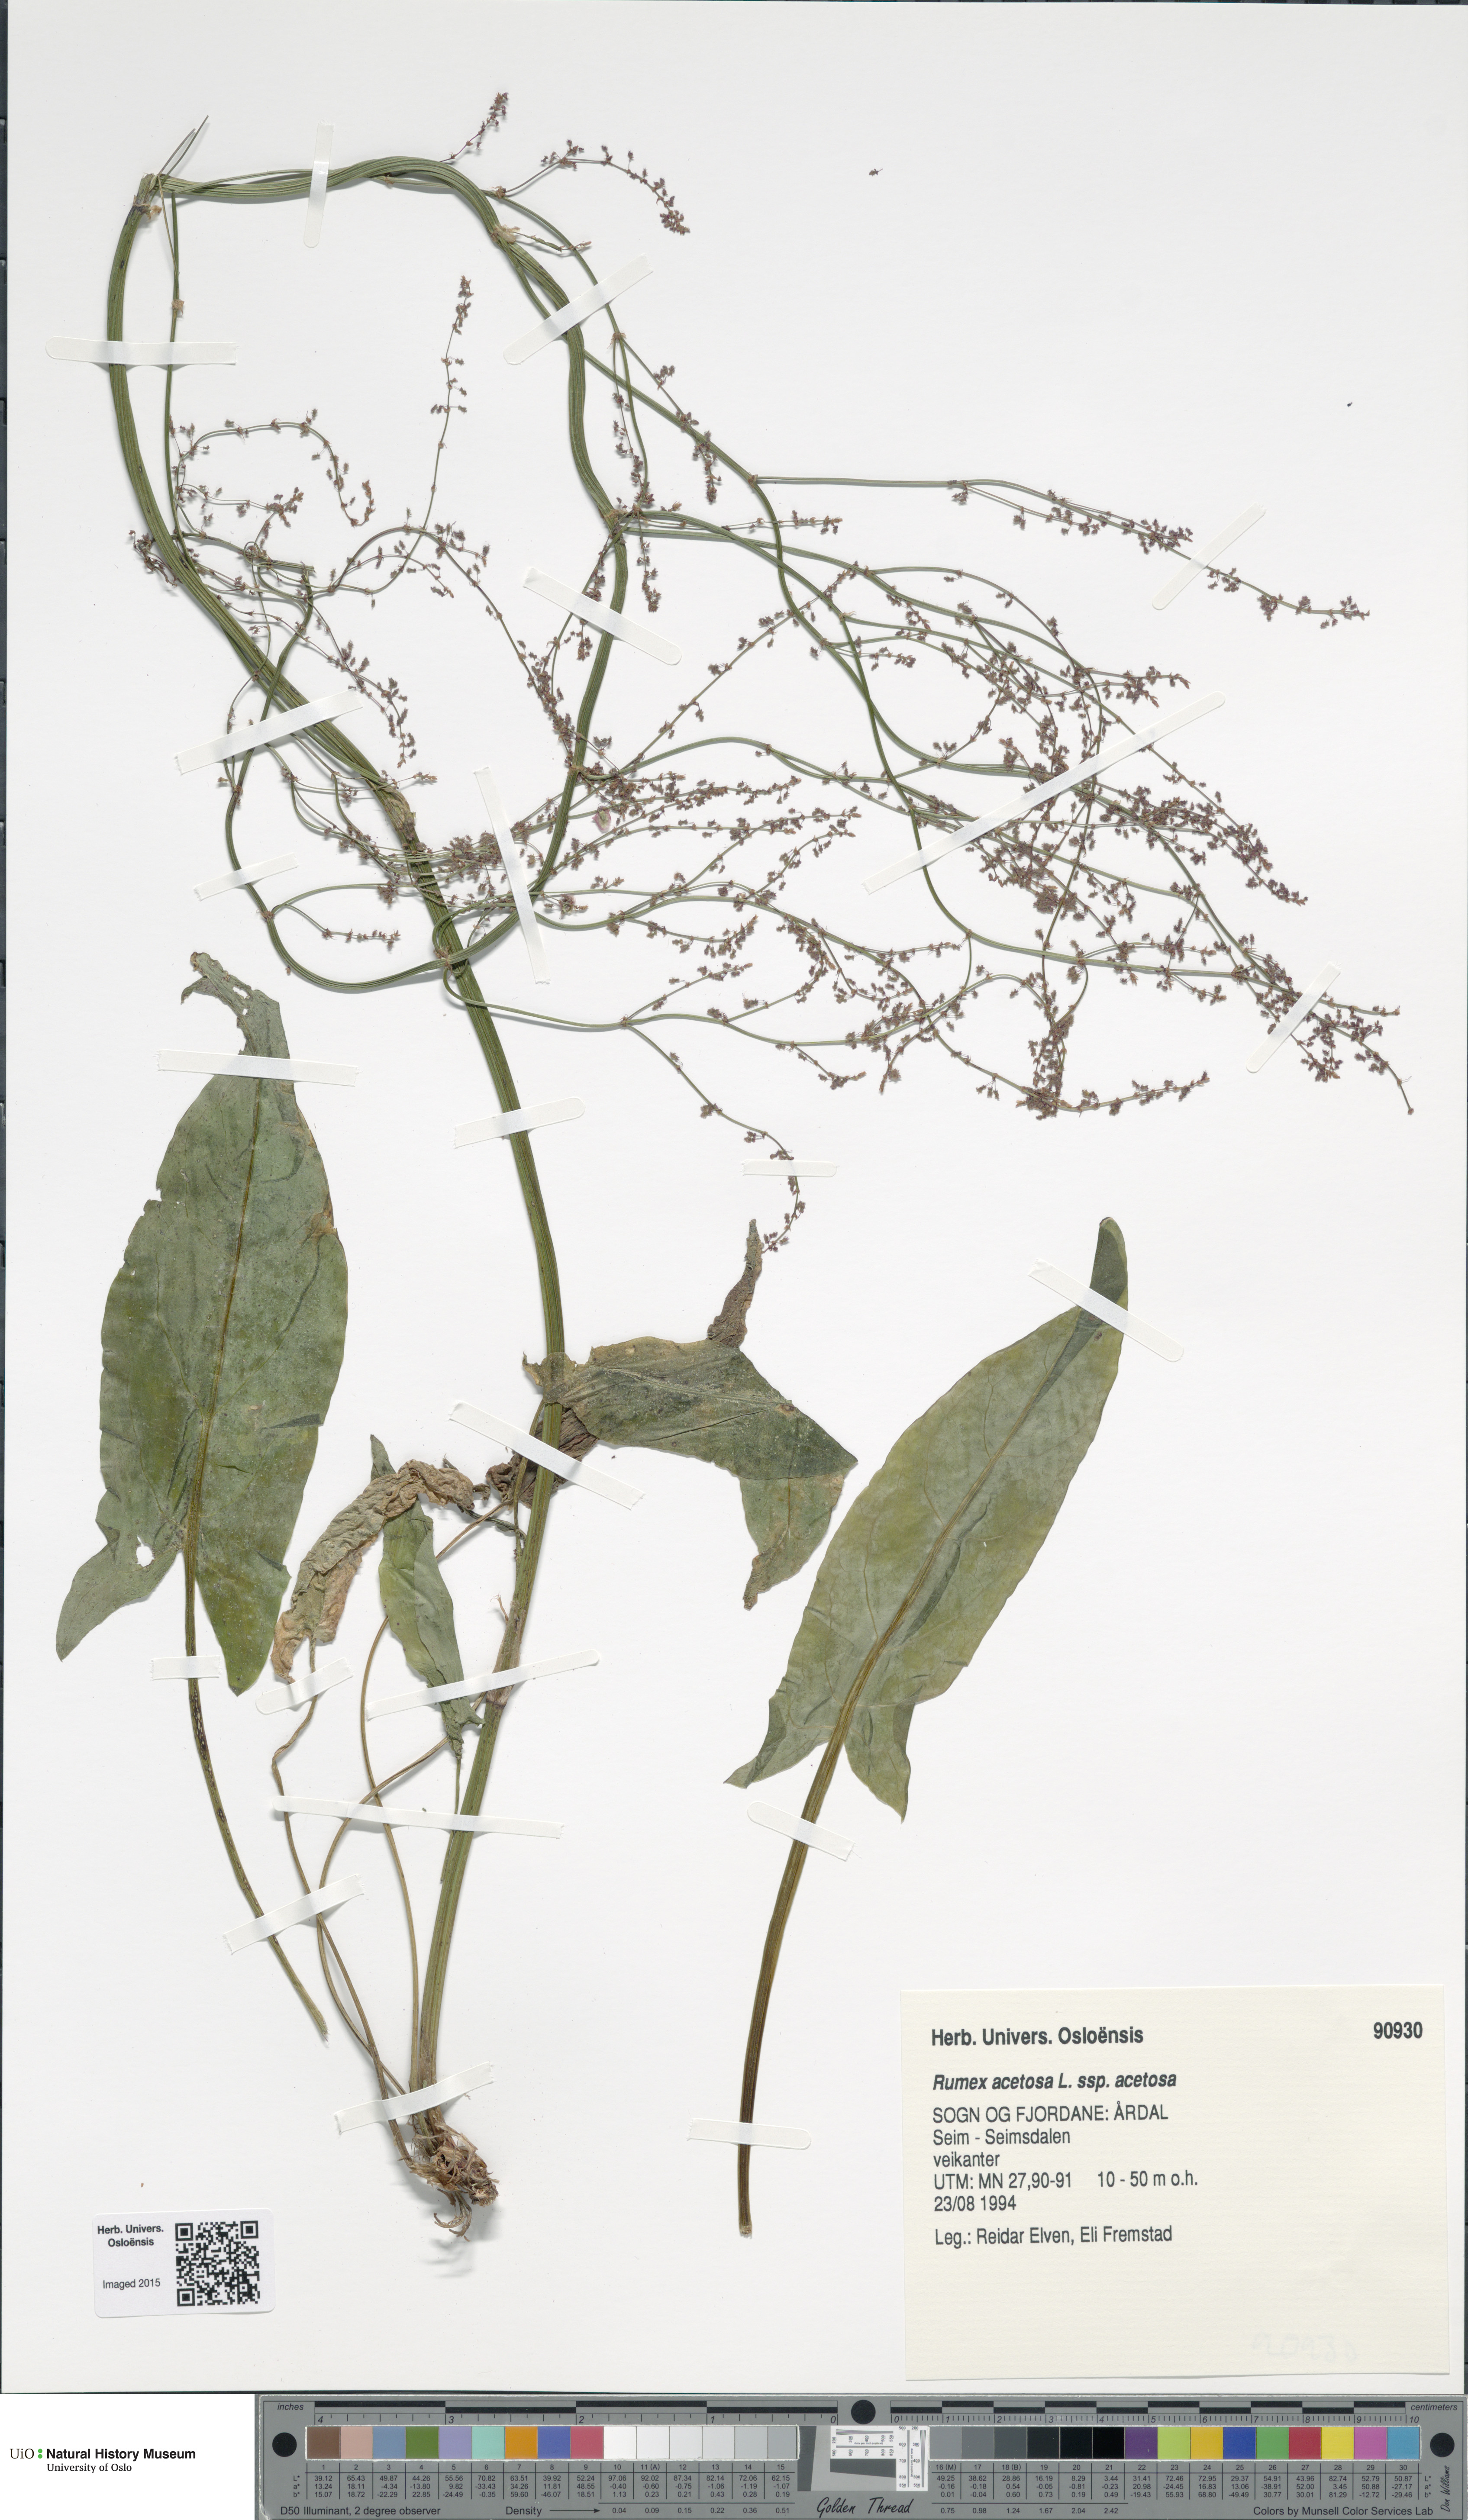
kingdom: Plantae
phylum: Tracheophyta
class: Magnoliopsida
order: Caryophyllales
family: Polygonaceae
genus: Rumex
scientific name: Rumex acetosa
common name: Garden sorrel
